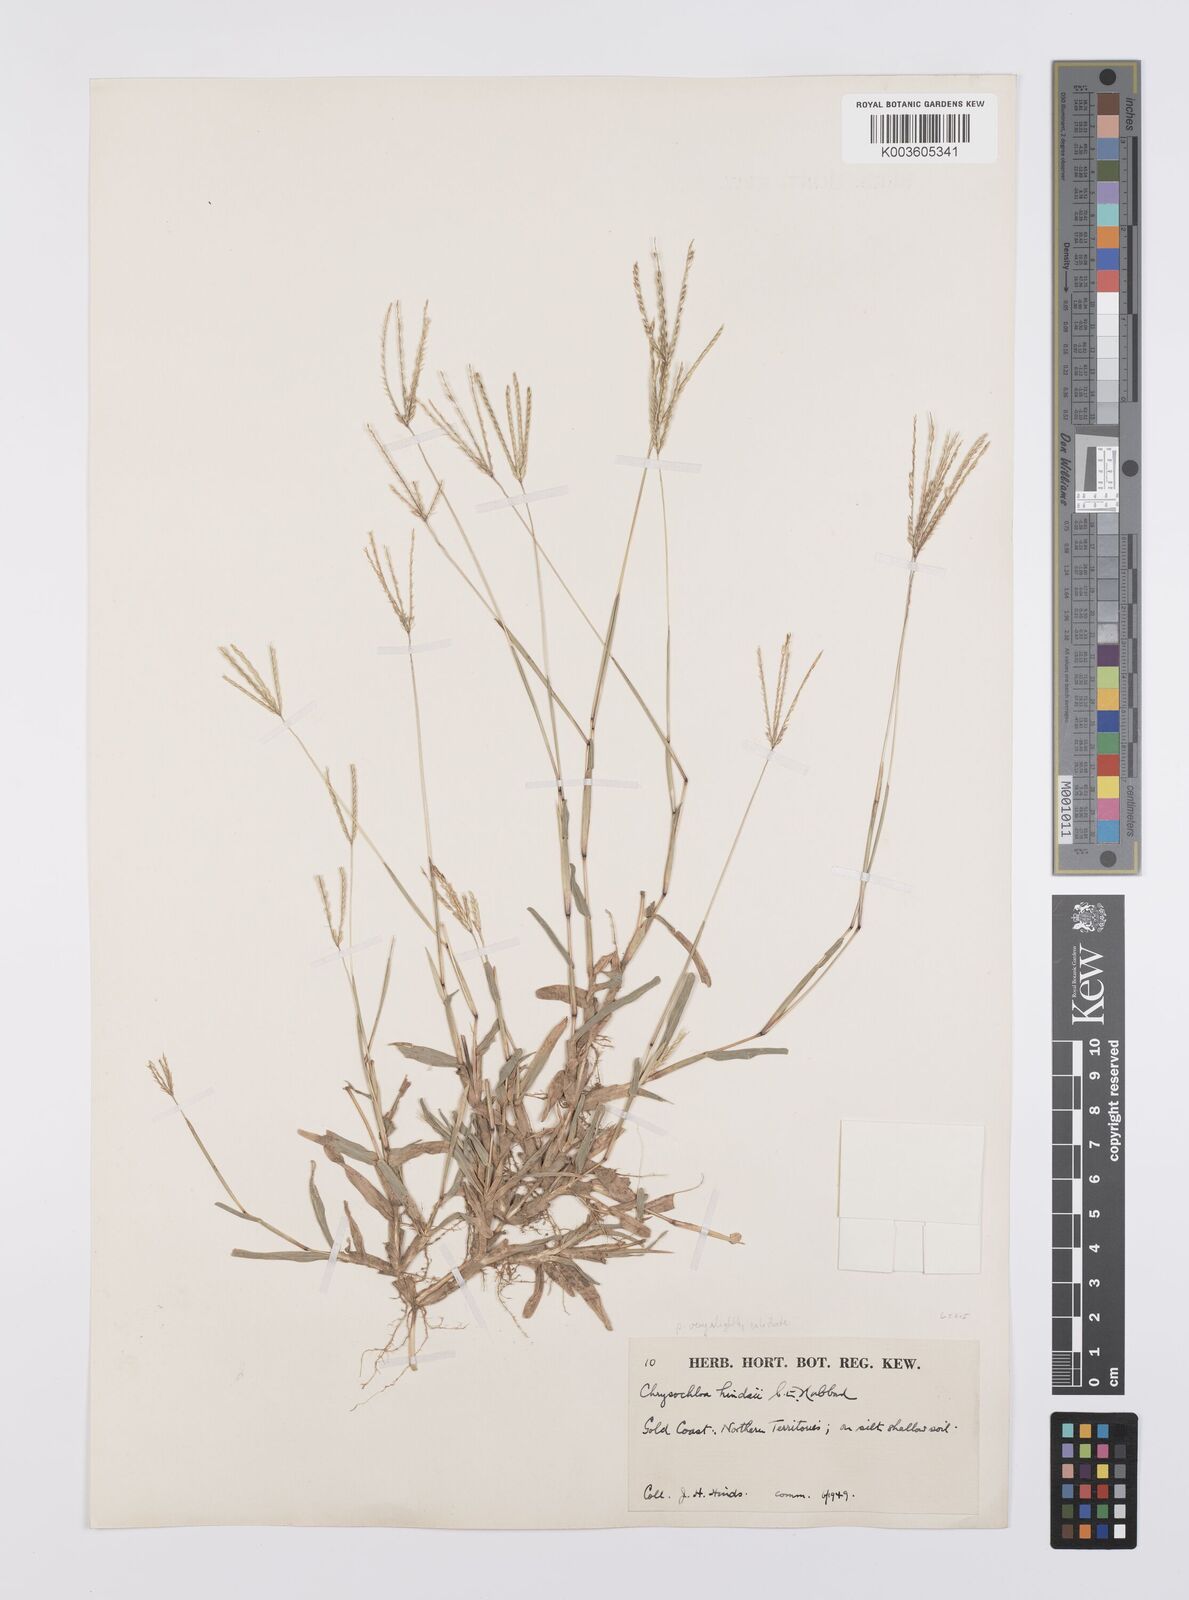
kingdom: Plantae
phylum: Tracheophyta
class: Liliopsida
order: Poales
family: Poaceae
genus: Chrysochloa
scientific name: Chrysochloa hindsii
